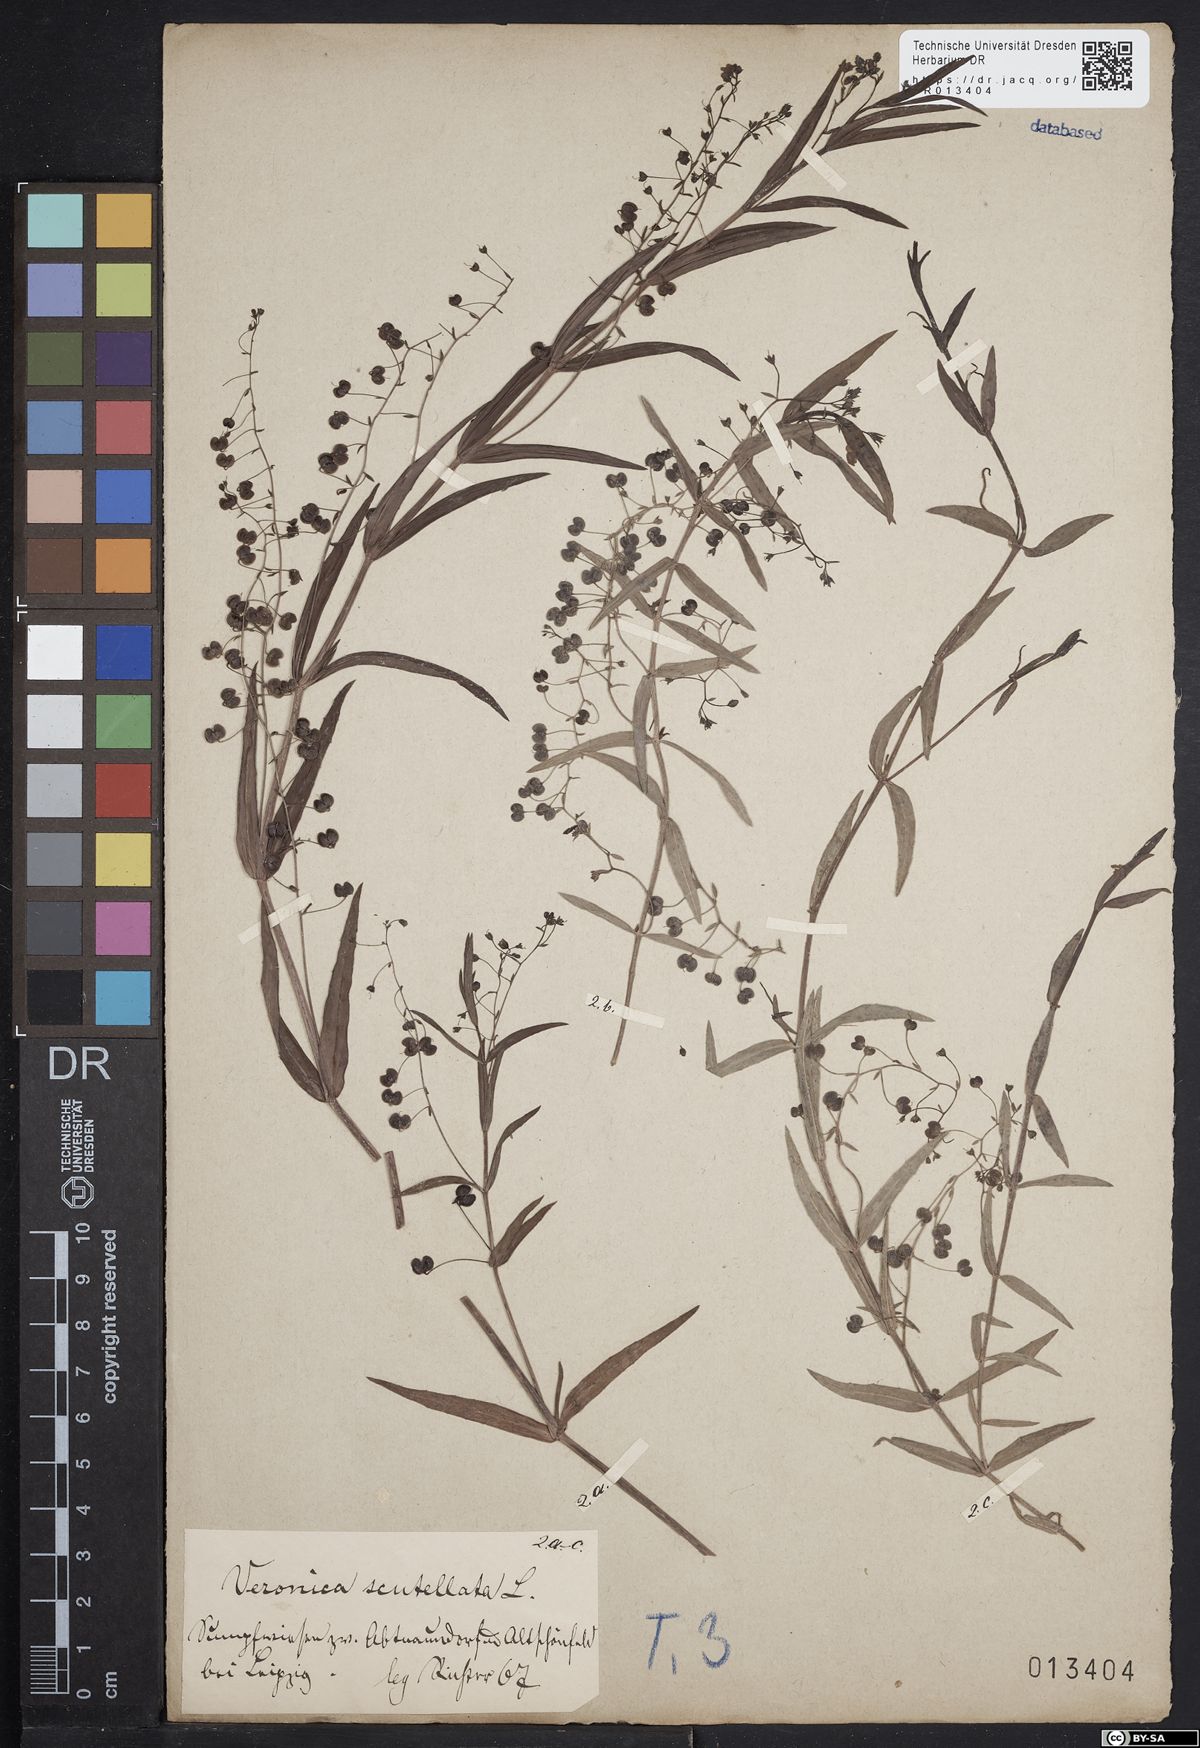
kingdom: Plantae
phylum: Tracheophyta
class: Magnoliopsida
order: Lamiales
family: Plantaginaceae
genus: Veronica
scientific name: Veronica scutellata
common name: Marsh speedwell
